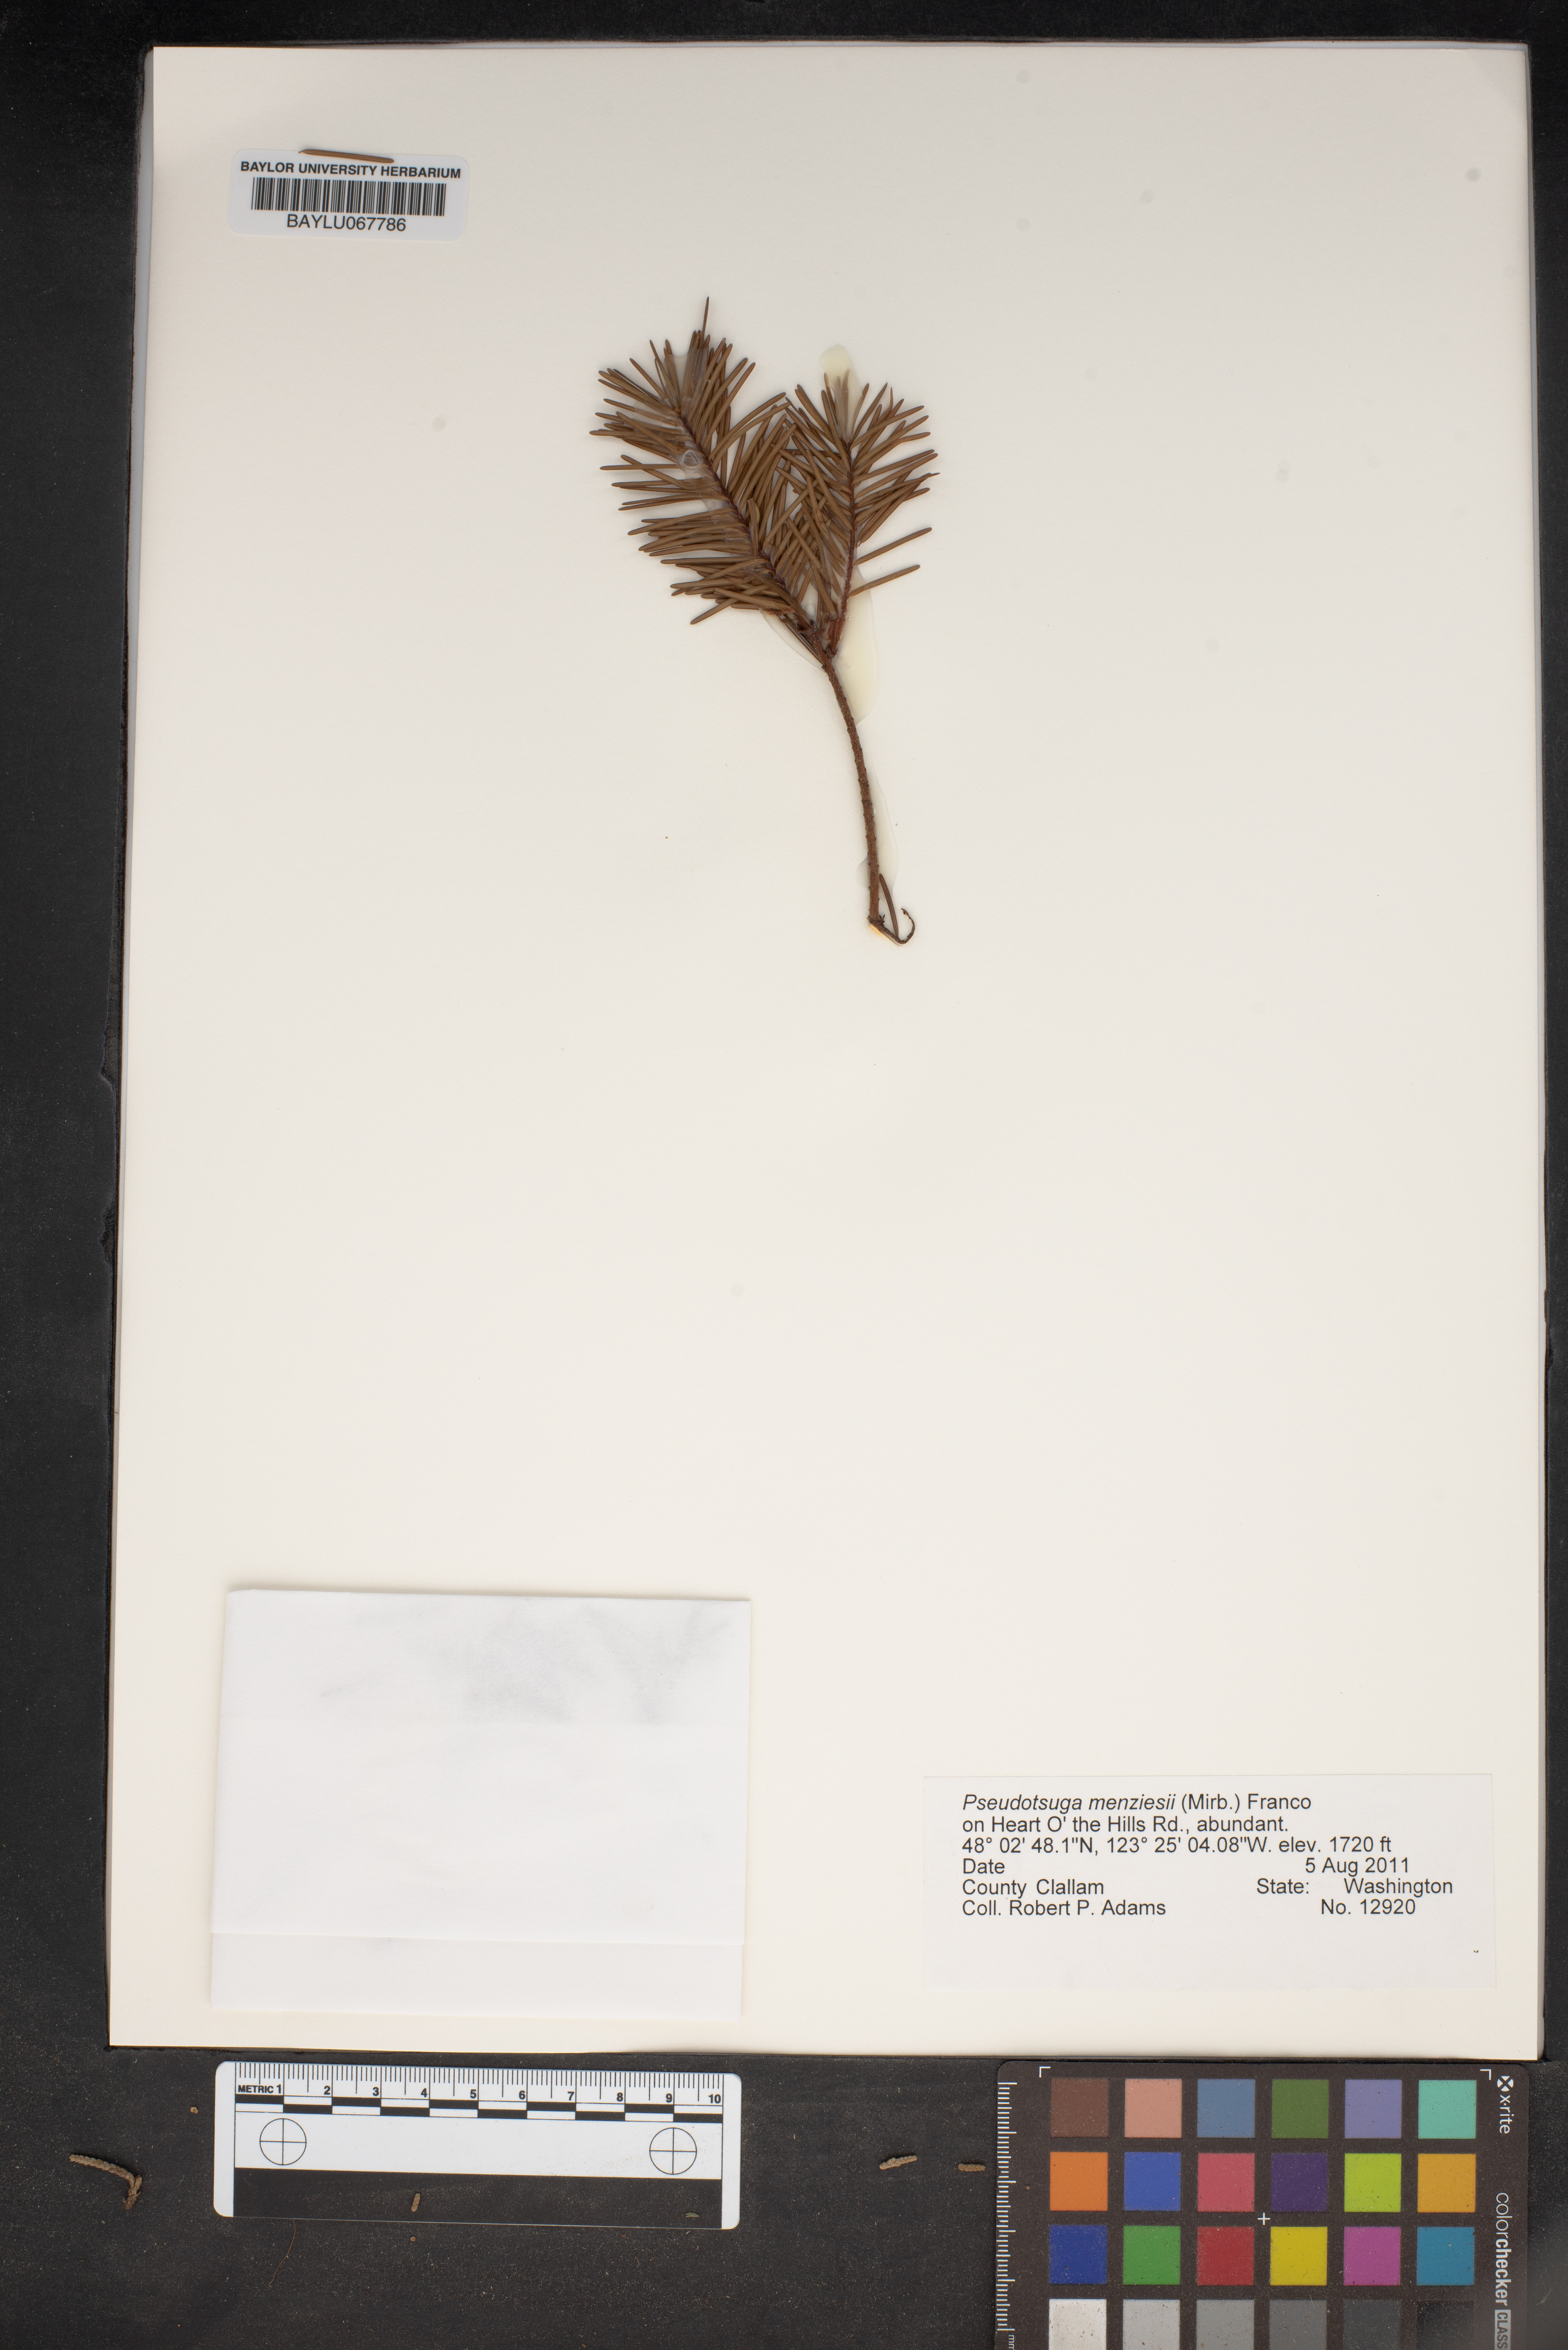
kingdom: Plantae
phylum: Tracheophyta
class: Pinopsida
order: Pinales
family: Pinaceae
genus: Pseudotsuga
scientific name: Pseudotsuga menziesii
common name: Douglas fir
